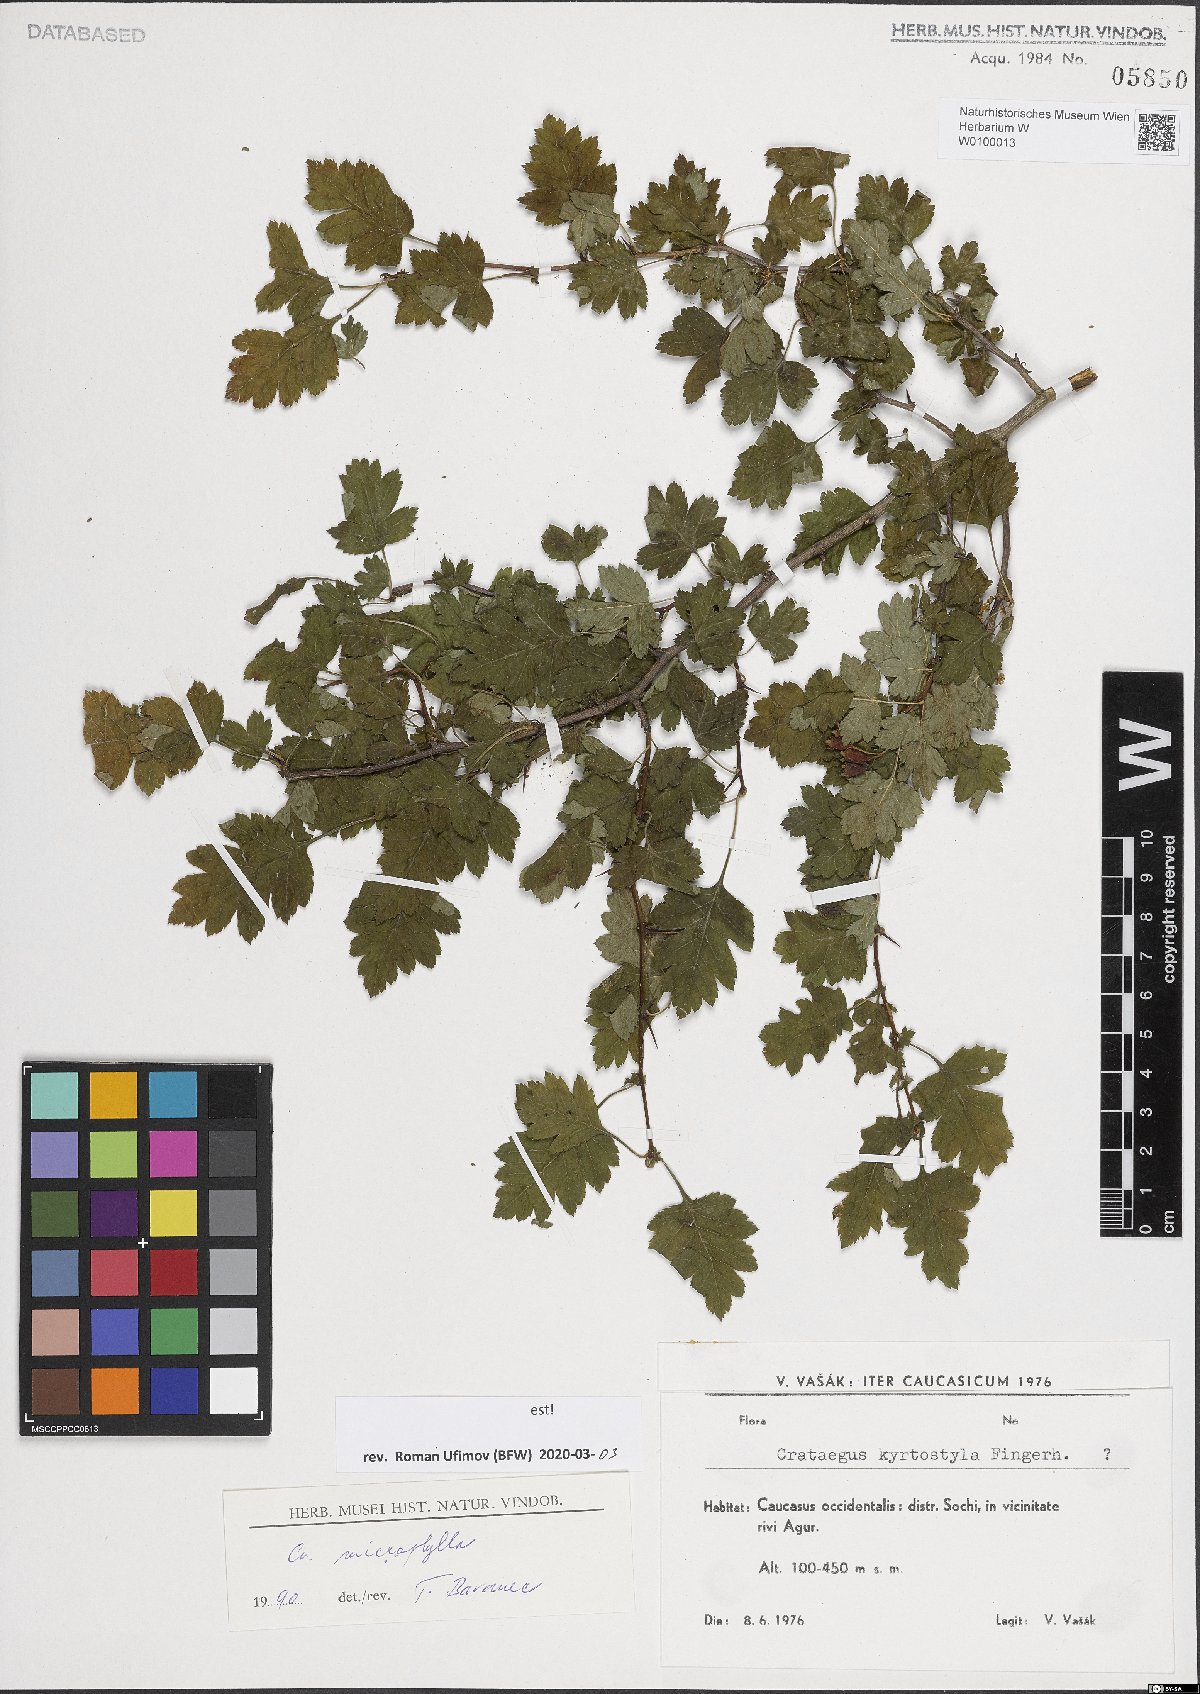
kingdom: Plantae
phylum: Tracheophyta
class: Magnoliopsida
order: Rosales
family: Rosaceae
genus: Crataegus
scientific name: Crataegus microphylla
